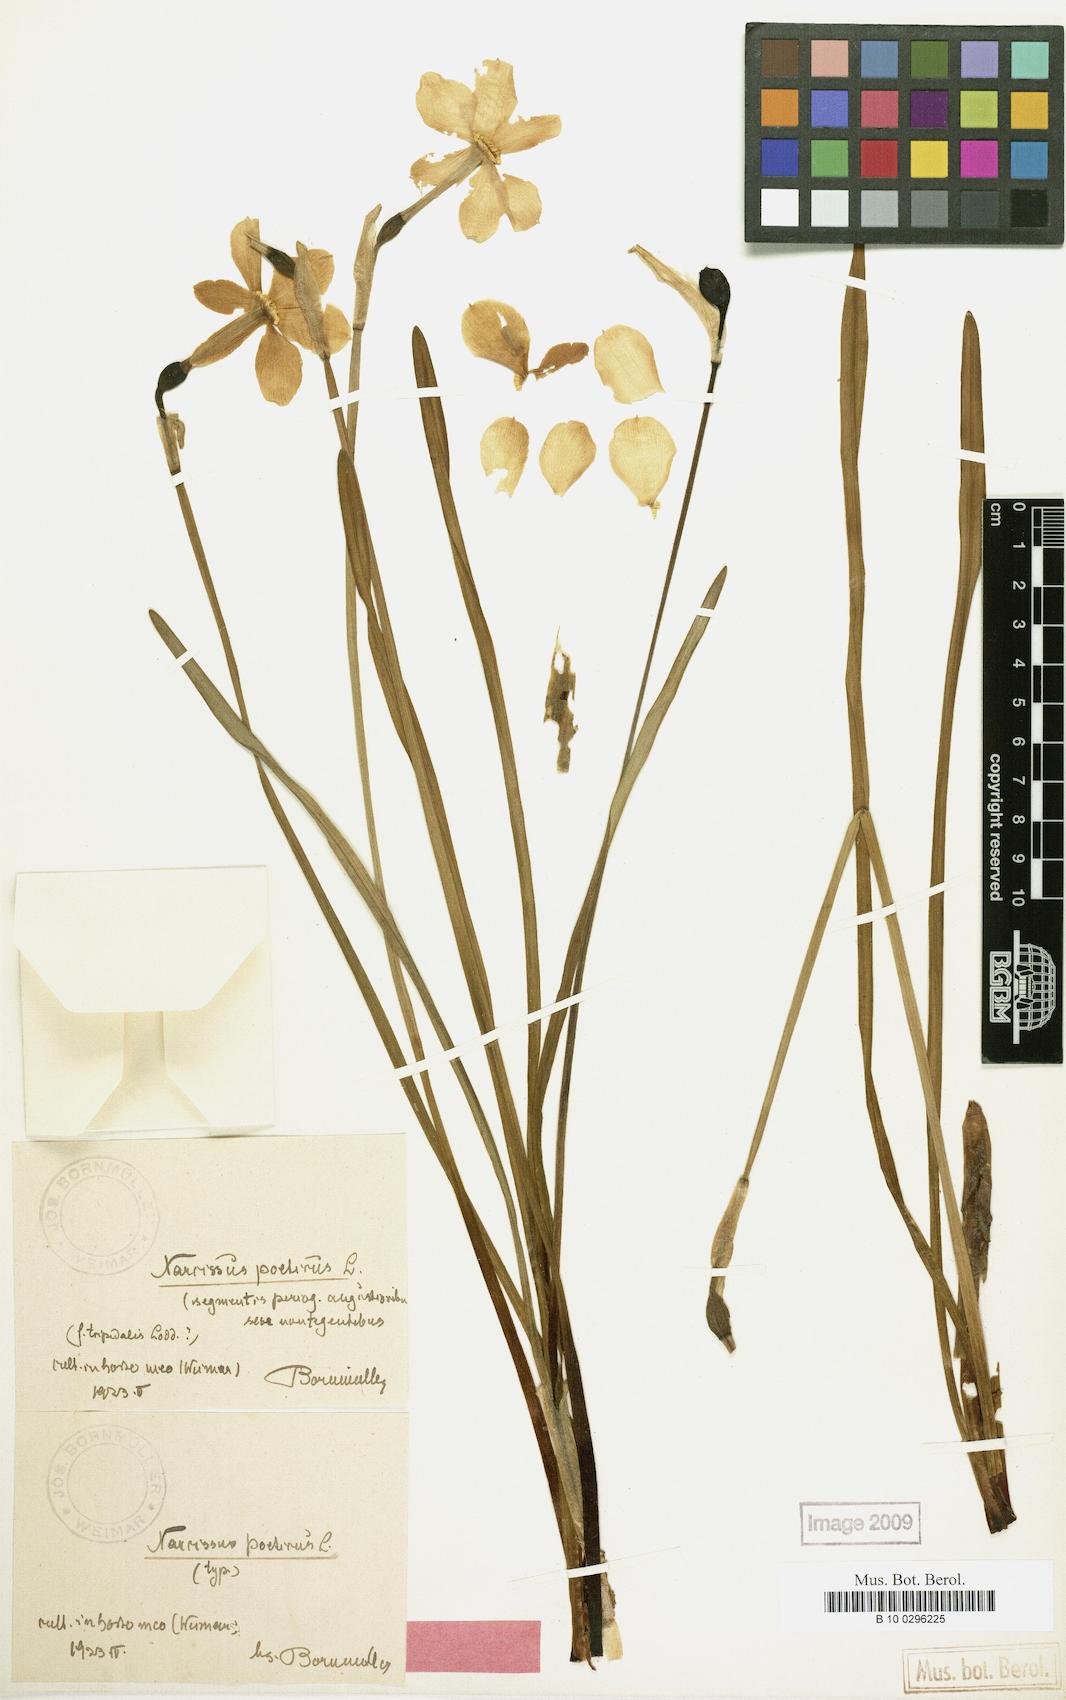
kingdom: Plantae
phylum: Tracheophyta
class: Liliopsida
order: Asparagales
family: Amaryllidaceae
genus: Narcissus
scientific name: Narcissus poeticus
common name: Pheasant's-eye daffodil
